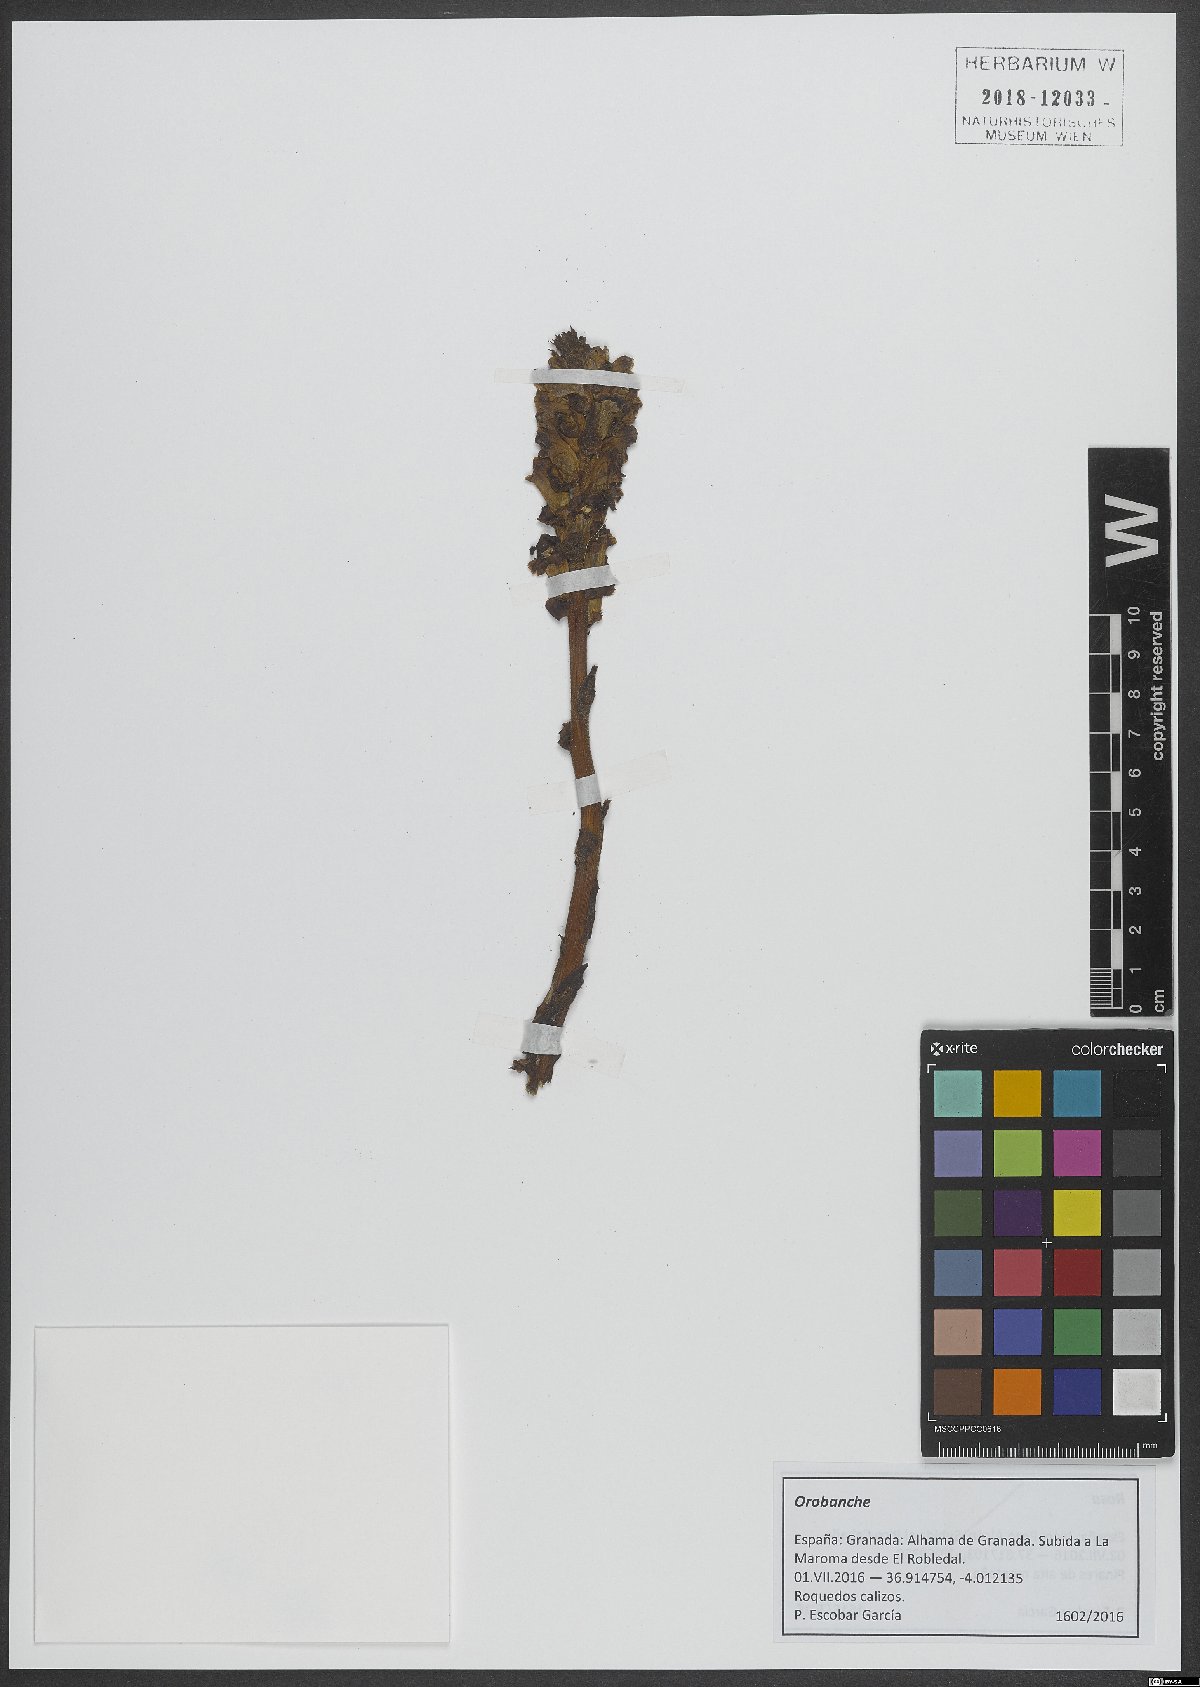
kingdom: Plantae
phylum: Tracheophyta
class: Magnoliopsida
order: Lamiales
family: Orobanchaceae
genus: Orobanche
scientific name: Orobanche
